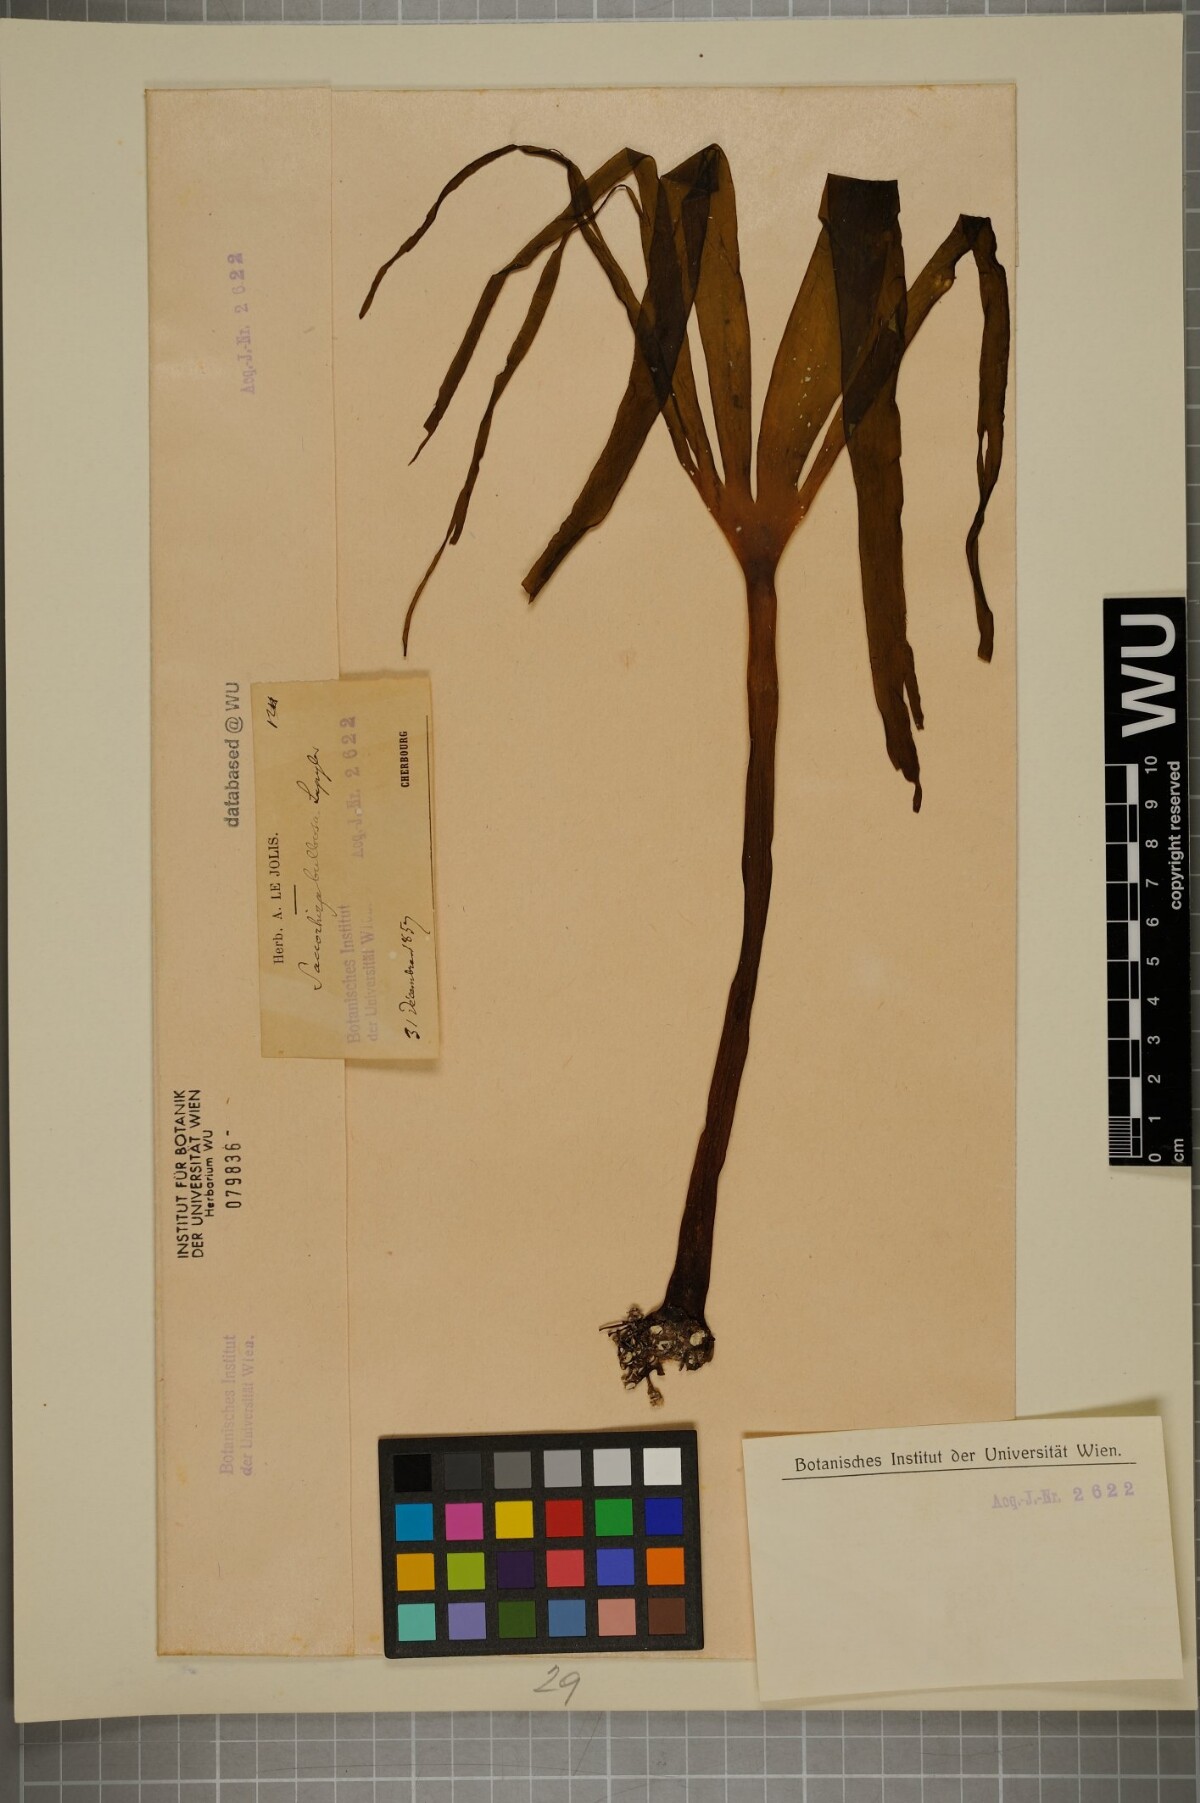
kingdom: Chromista
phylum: Ochrophyta
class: Phaeophyceae
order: Tilopteridales
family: Phyllariaceae
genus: Saccorhiza
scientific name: Saccorhiza polyschides
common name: Furbelows
